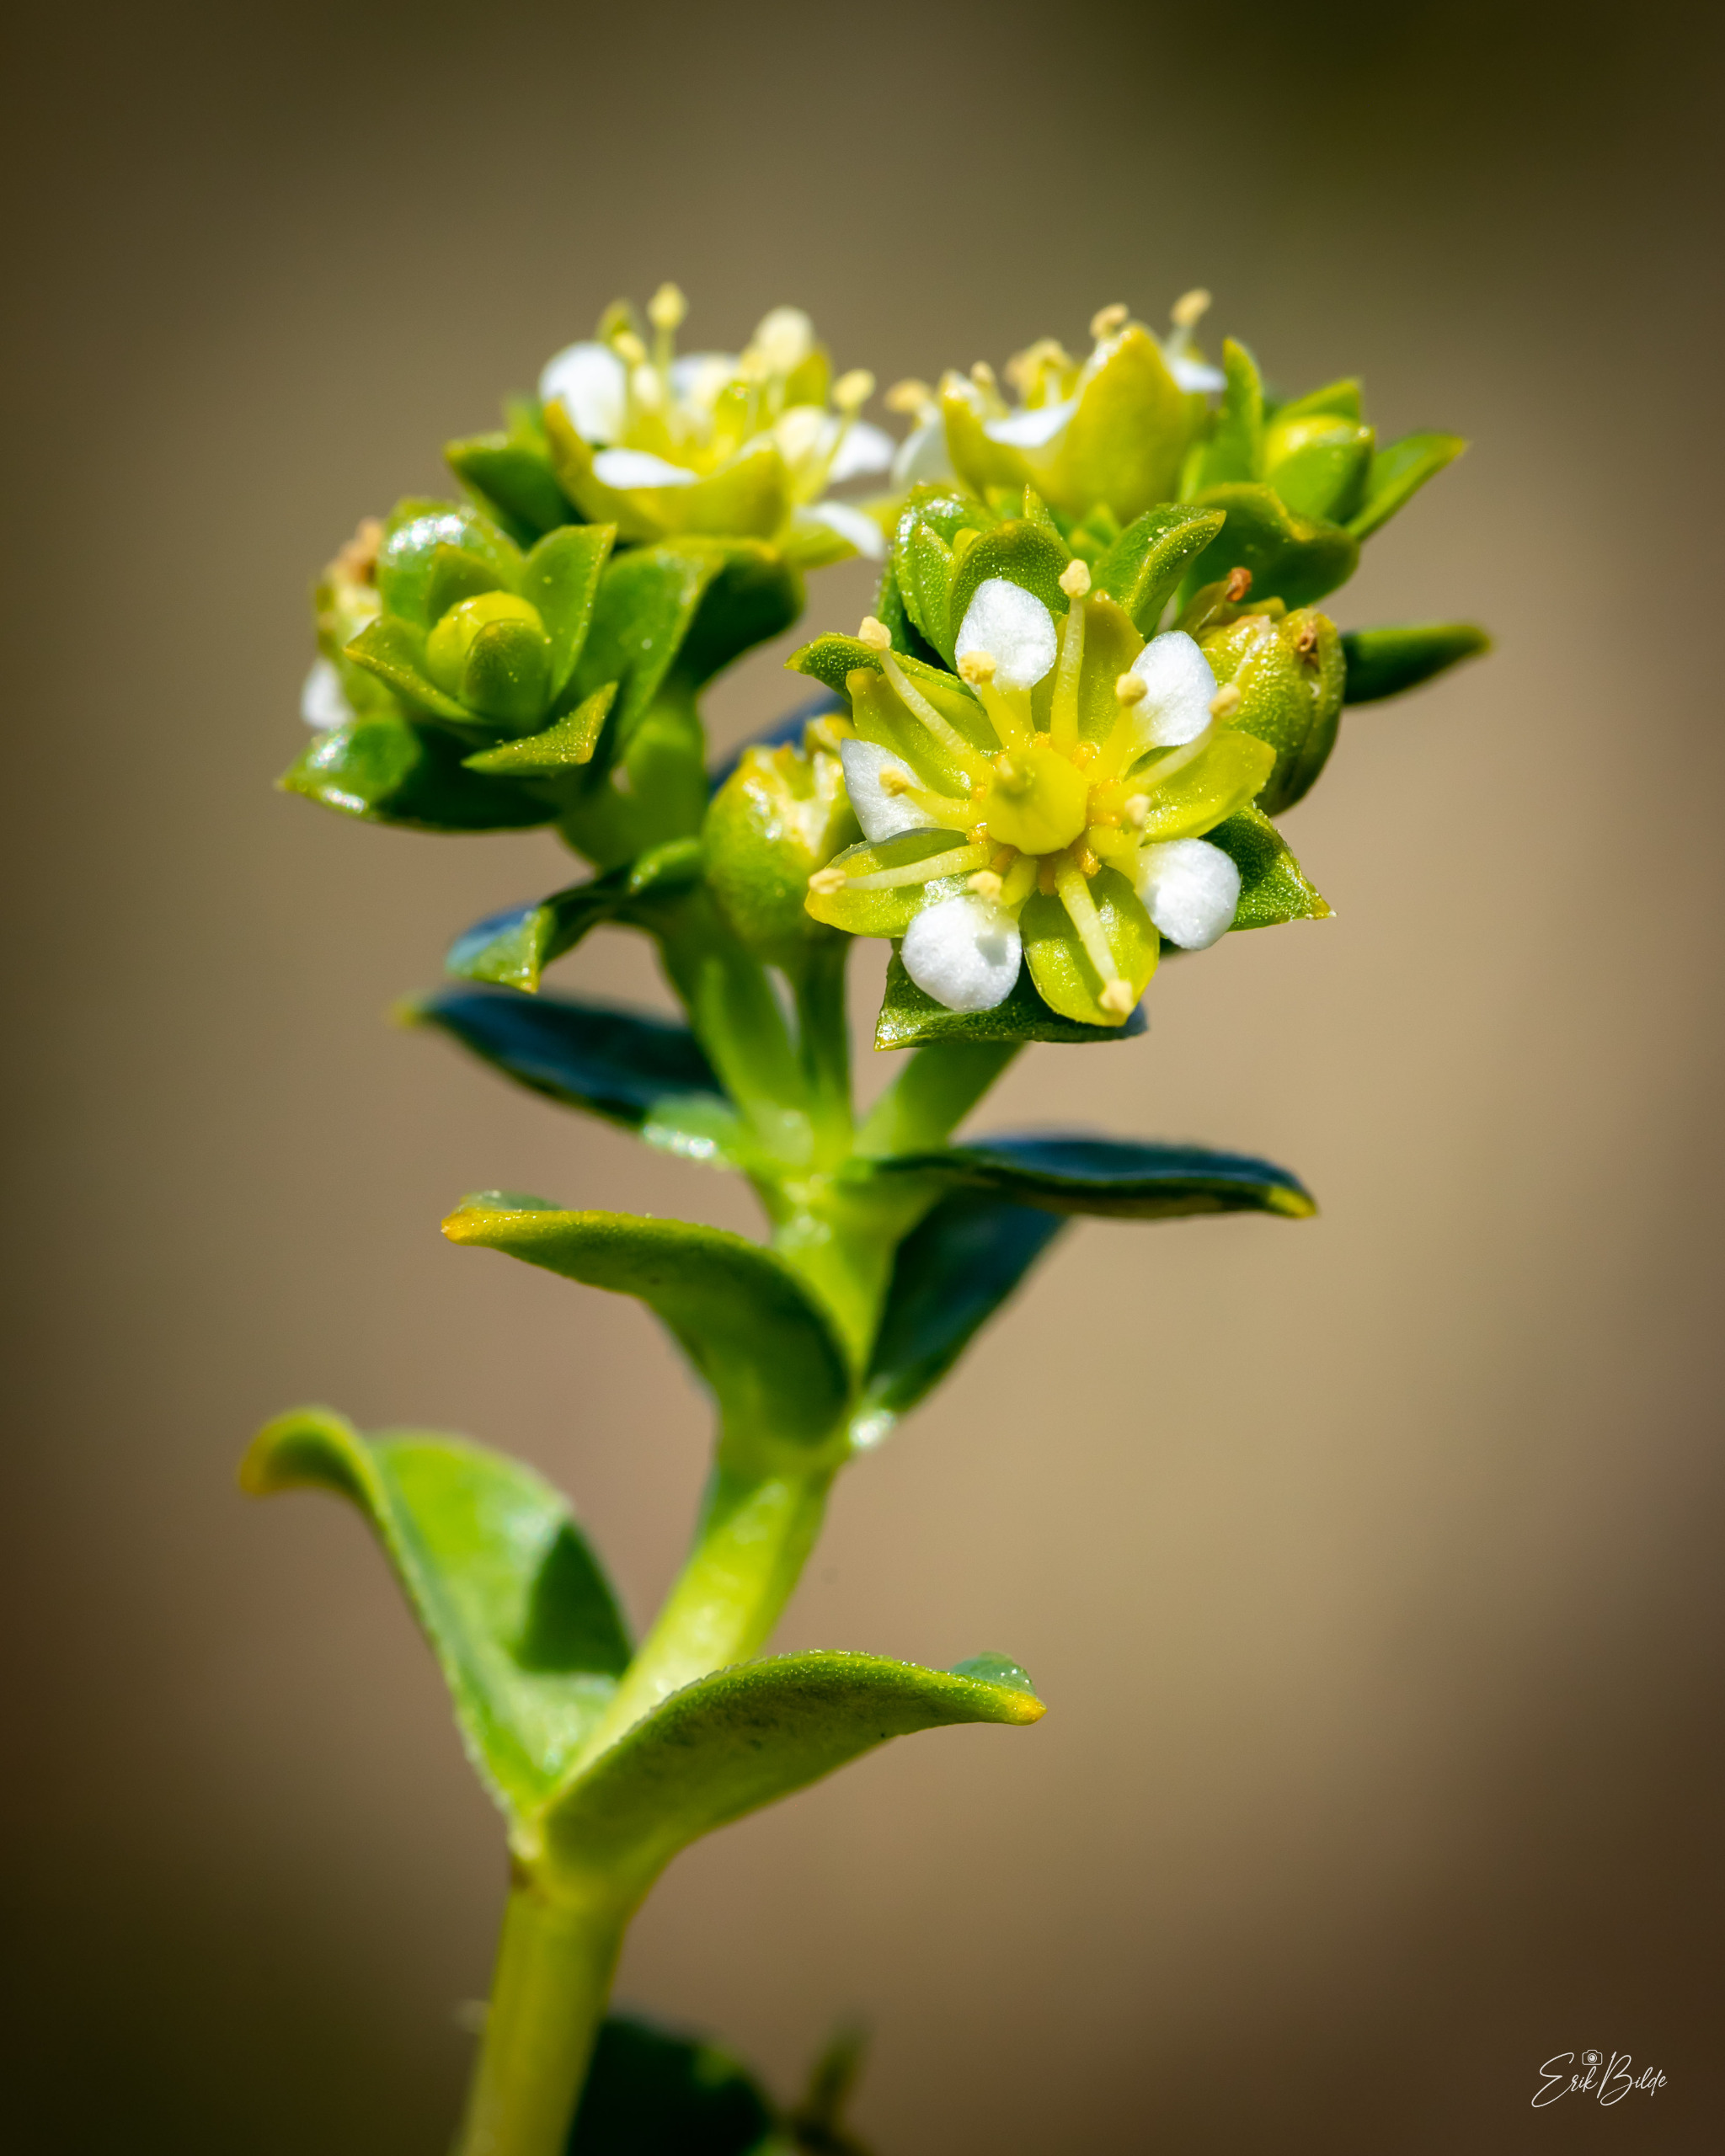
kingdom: Plantae
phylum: Tracheophyta
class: Magnoliopsida
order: Caryophyllales
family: Caryophyllaceae
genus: Honckenya
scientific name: Honckenya peploides
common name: Strandarve
